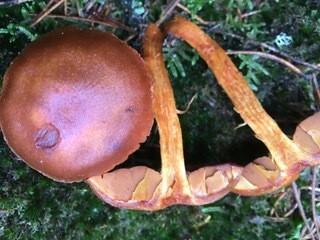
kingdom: Fungi
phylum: Basidiomycota
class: Agaricomycetes
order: Agaricales
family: Cortinariaceae
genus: Cortinarius
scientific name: Cortinarius purpureus
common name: brunrød slørhat
